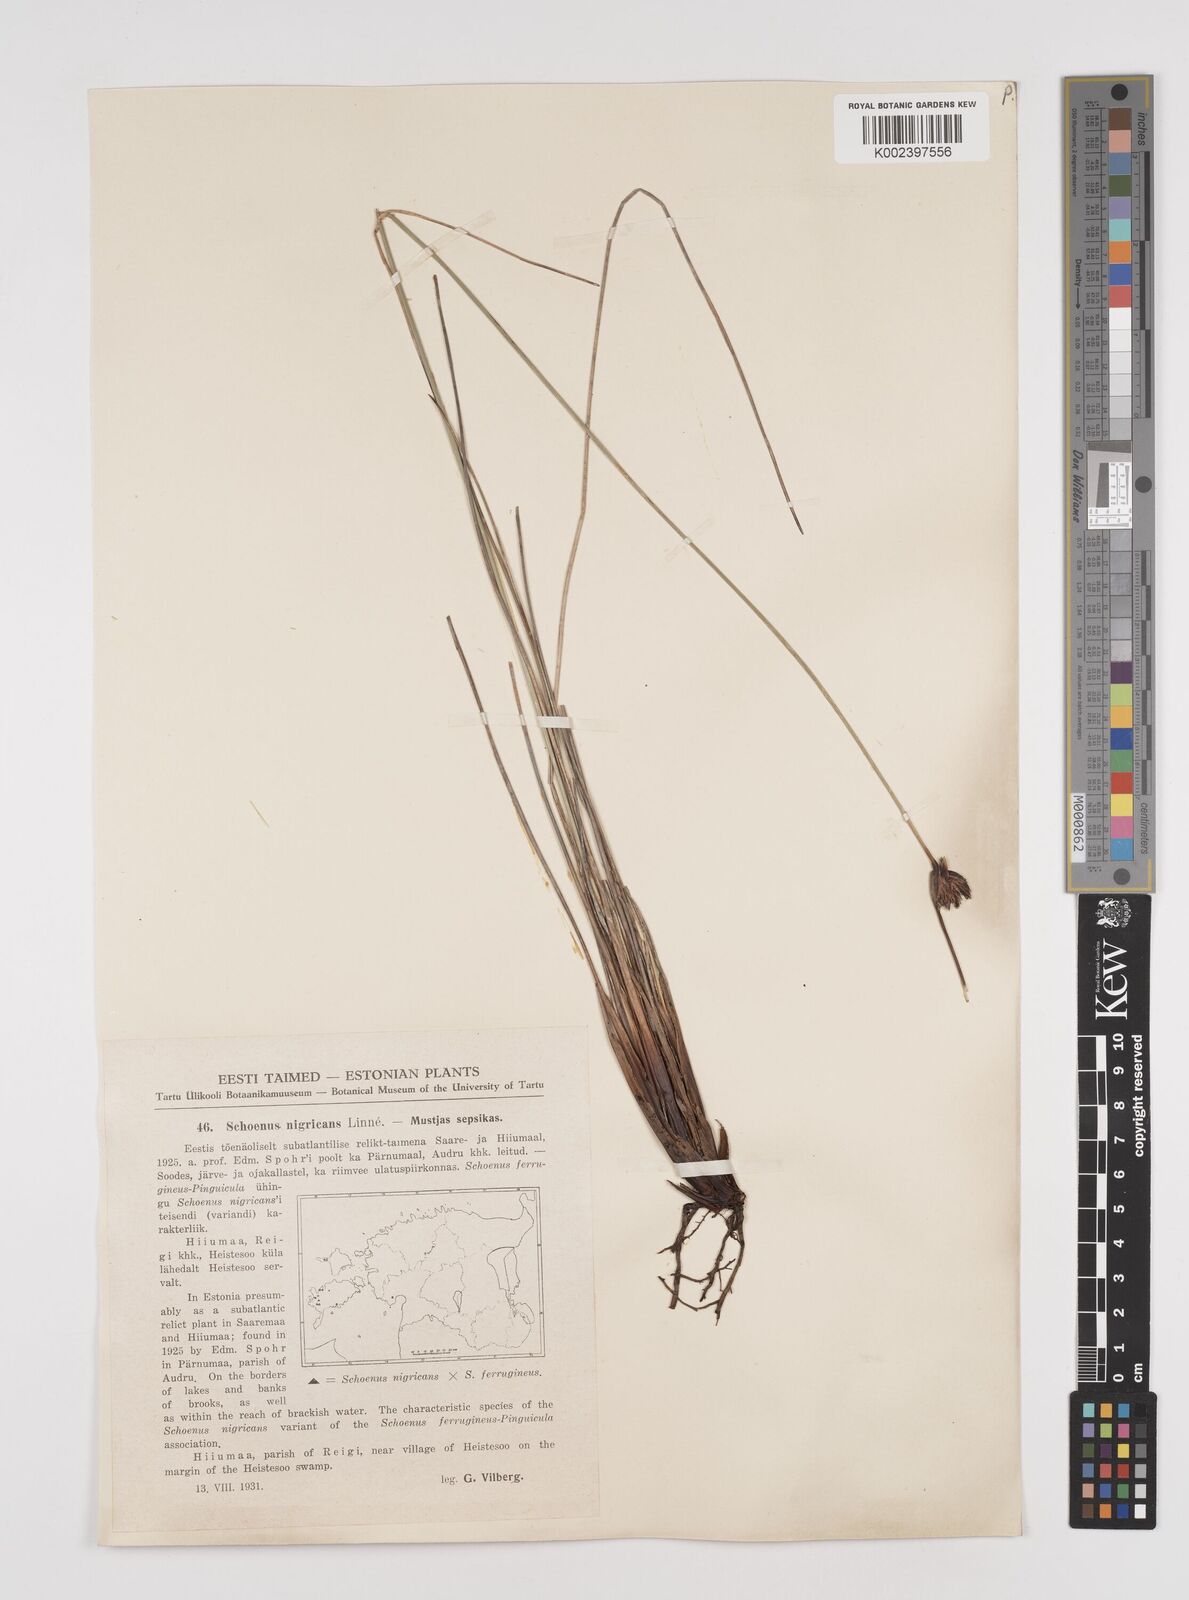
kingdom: Plantae
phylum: Tracheophyta
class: Liliopsida
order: Poales
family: Cyperaceae
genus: Schoenus
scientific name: Schoenus nigricans
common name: Black bog-rush
